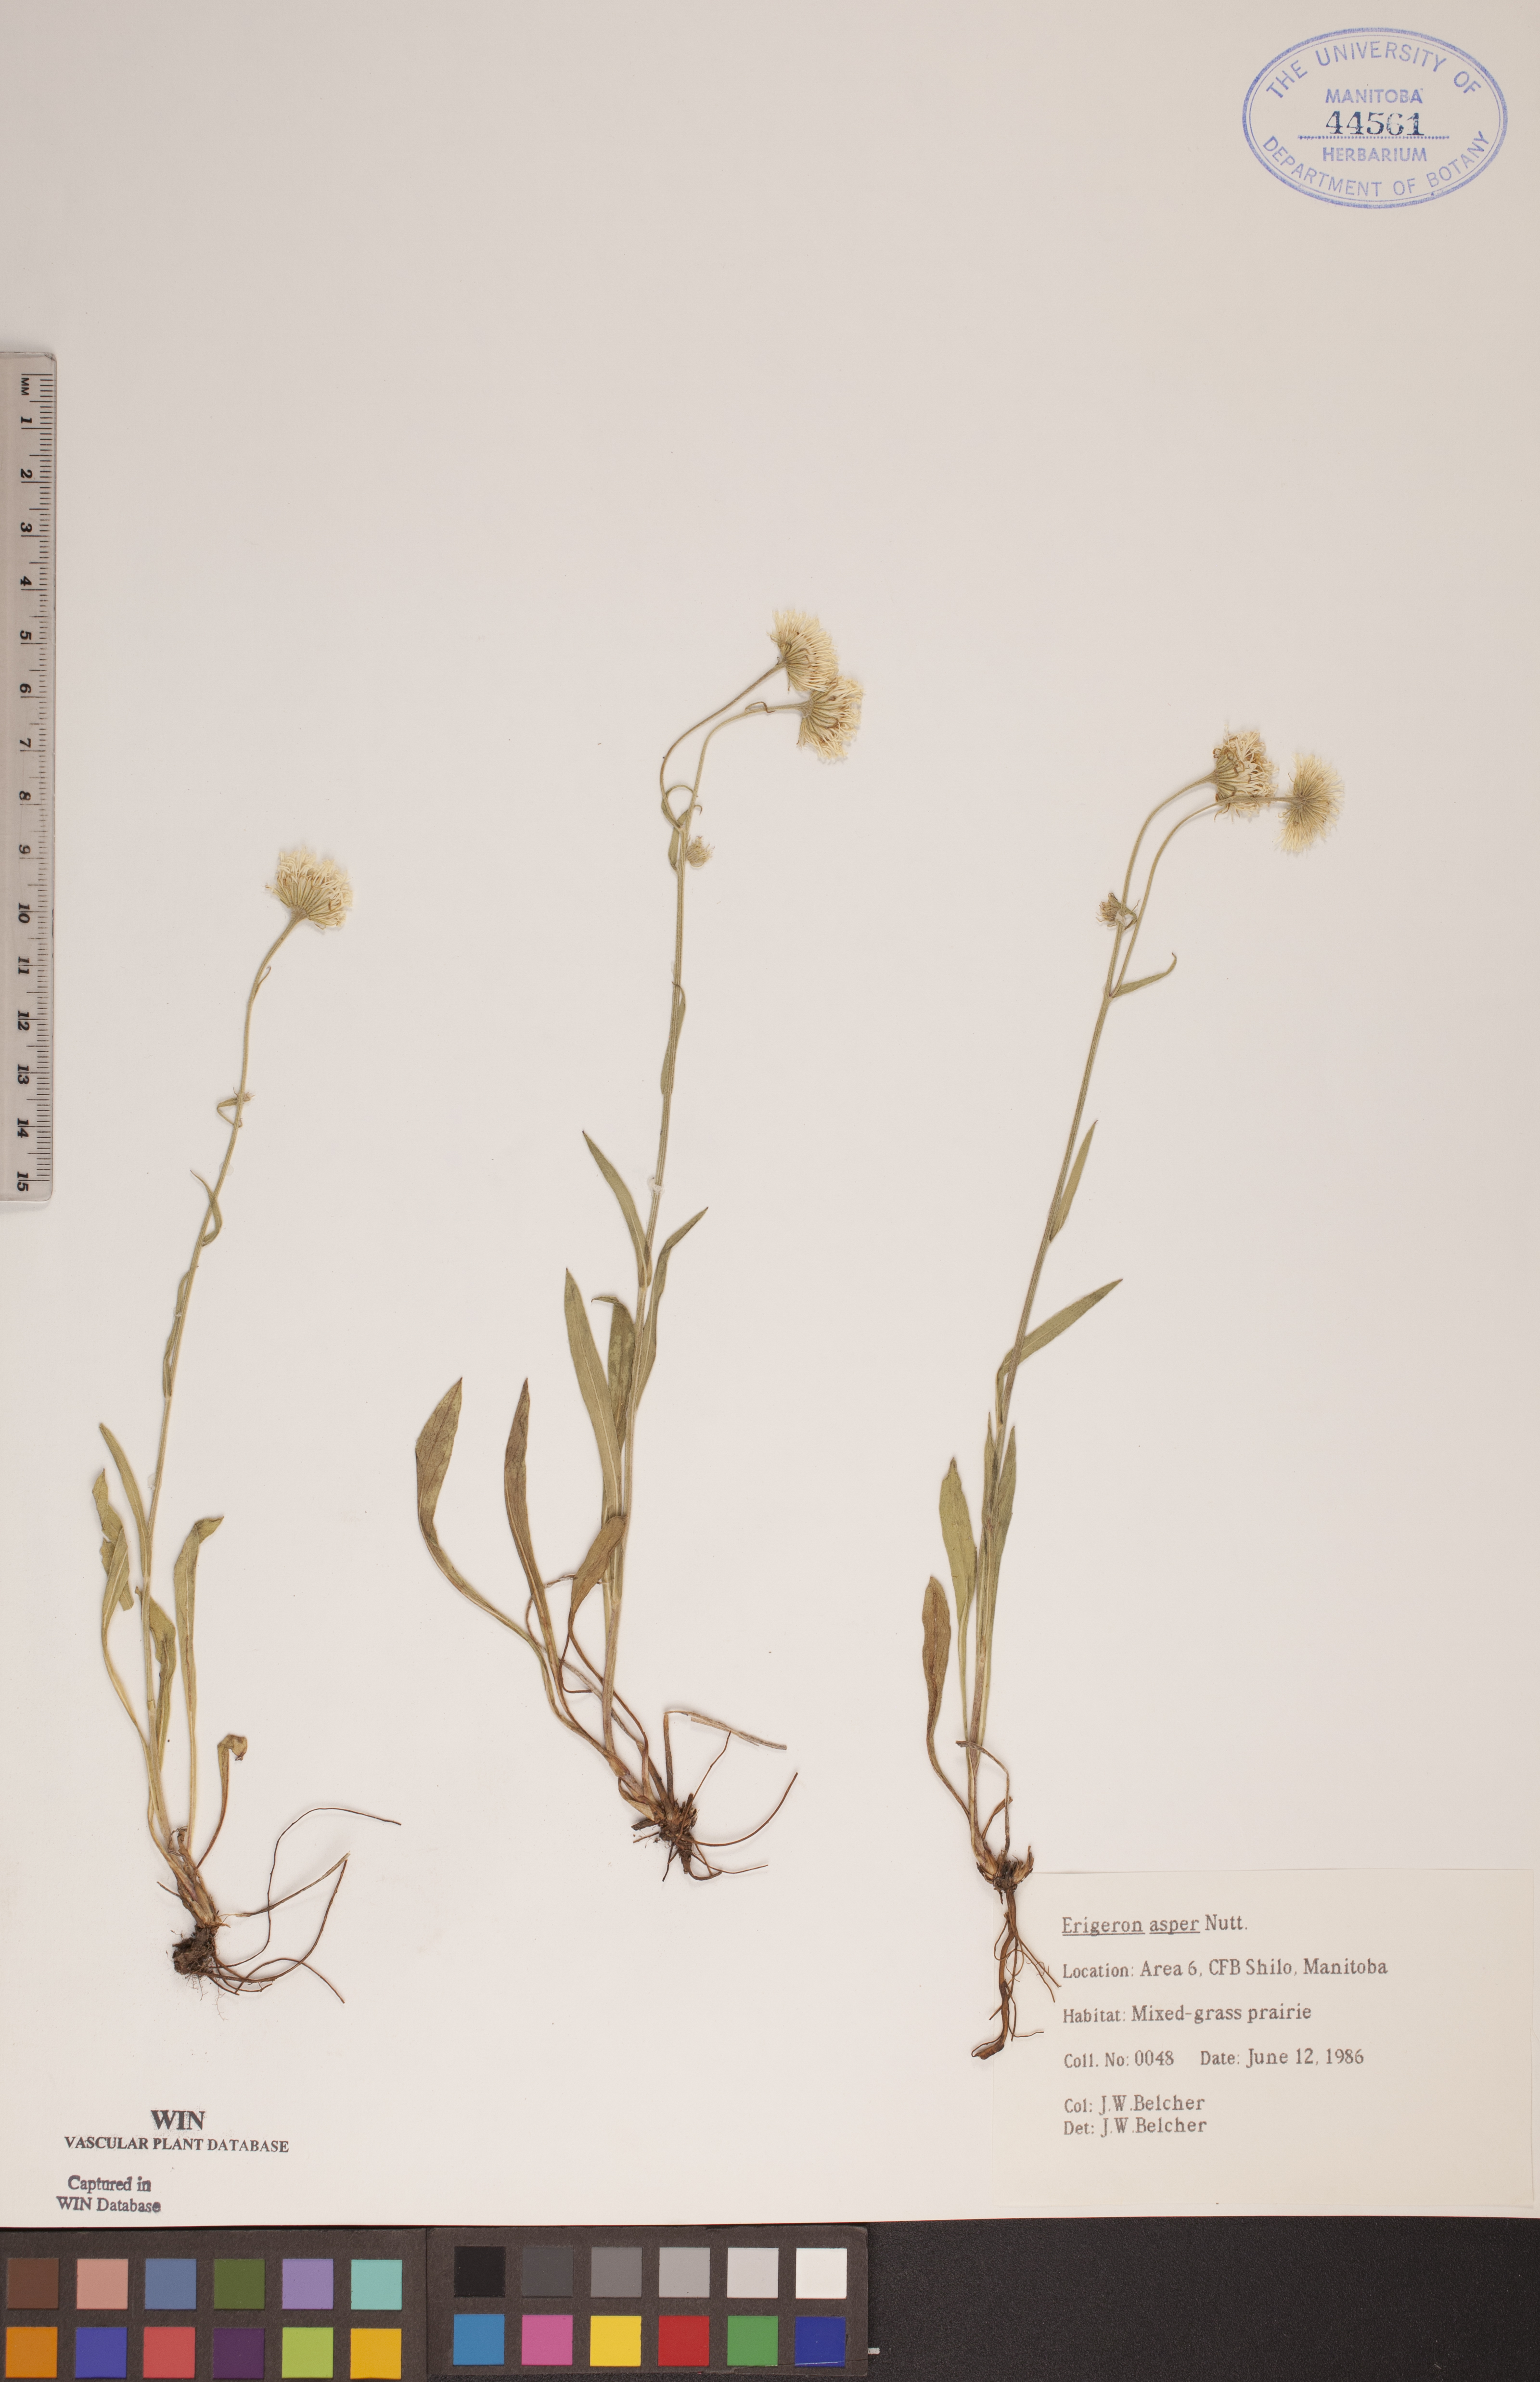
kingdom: Plantae
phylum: Tracheophyta
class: Magnoliopsida
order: Asterales
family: Asteraceae
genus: Erigeron
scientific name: Erigeron glabellus
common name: Smooth fleabane
